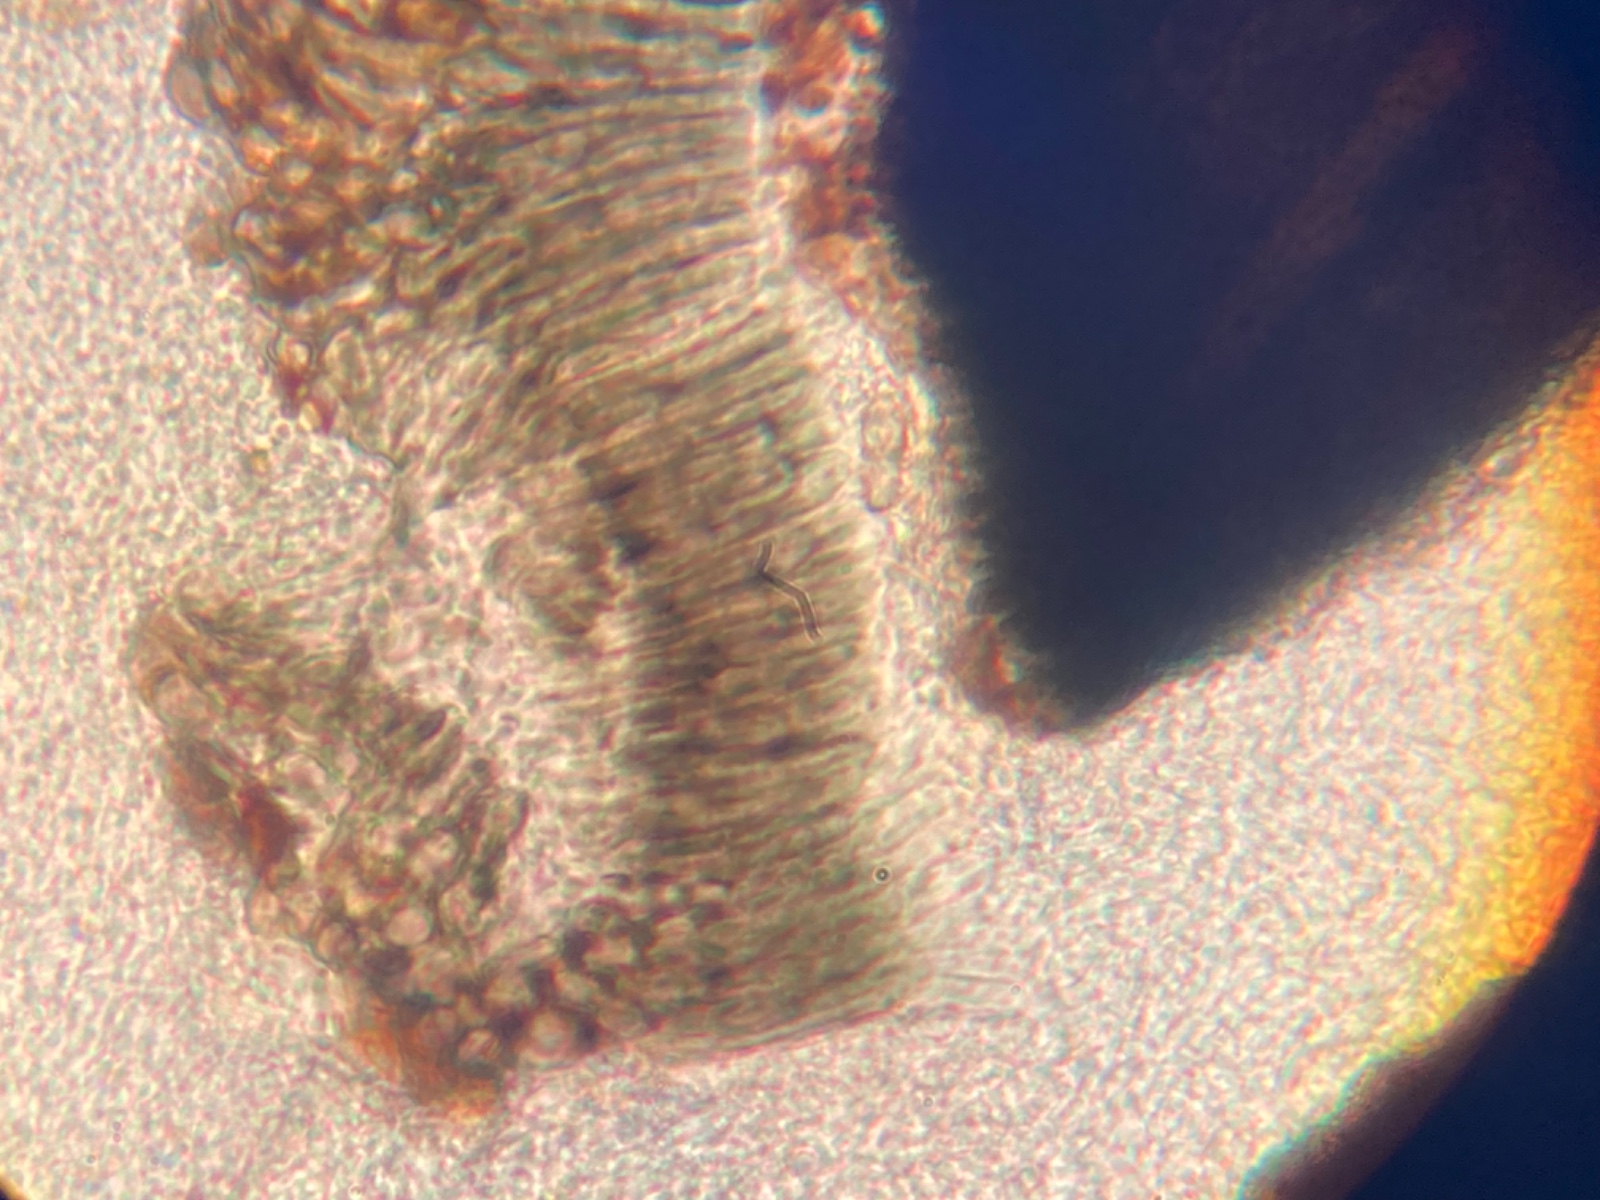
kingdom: Fungi
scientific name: Fungi
